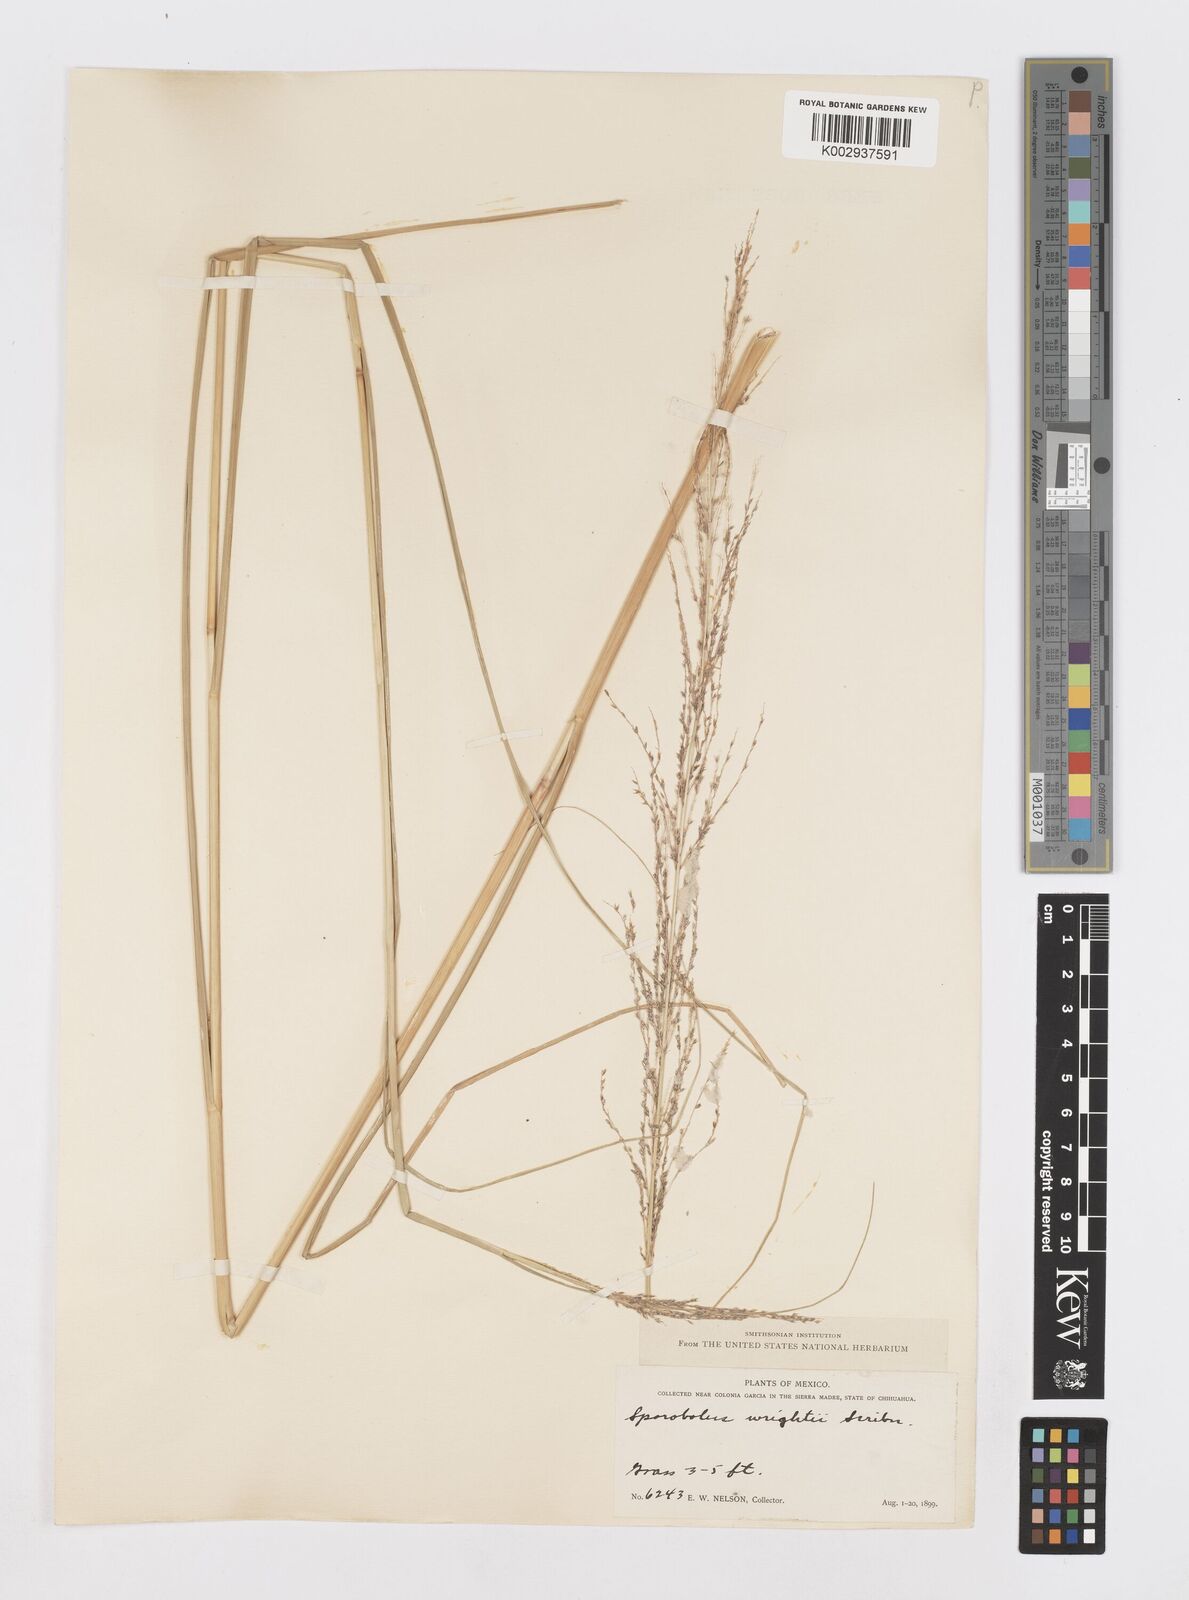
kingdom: Plantae
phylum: Tracheophyta
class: Liliopsida
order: Poales
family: Poaceae
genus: Sporobolus
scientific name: Sporobolus wrightii
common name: Big alkali sacaton
